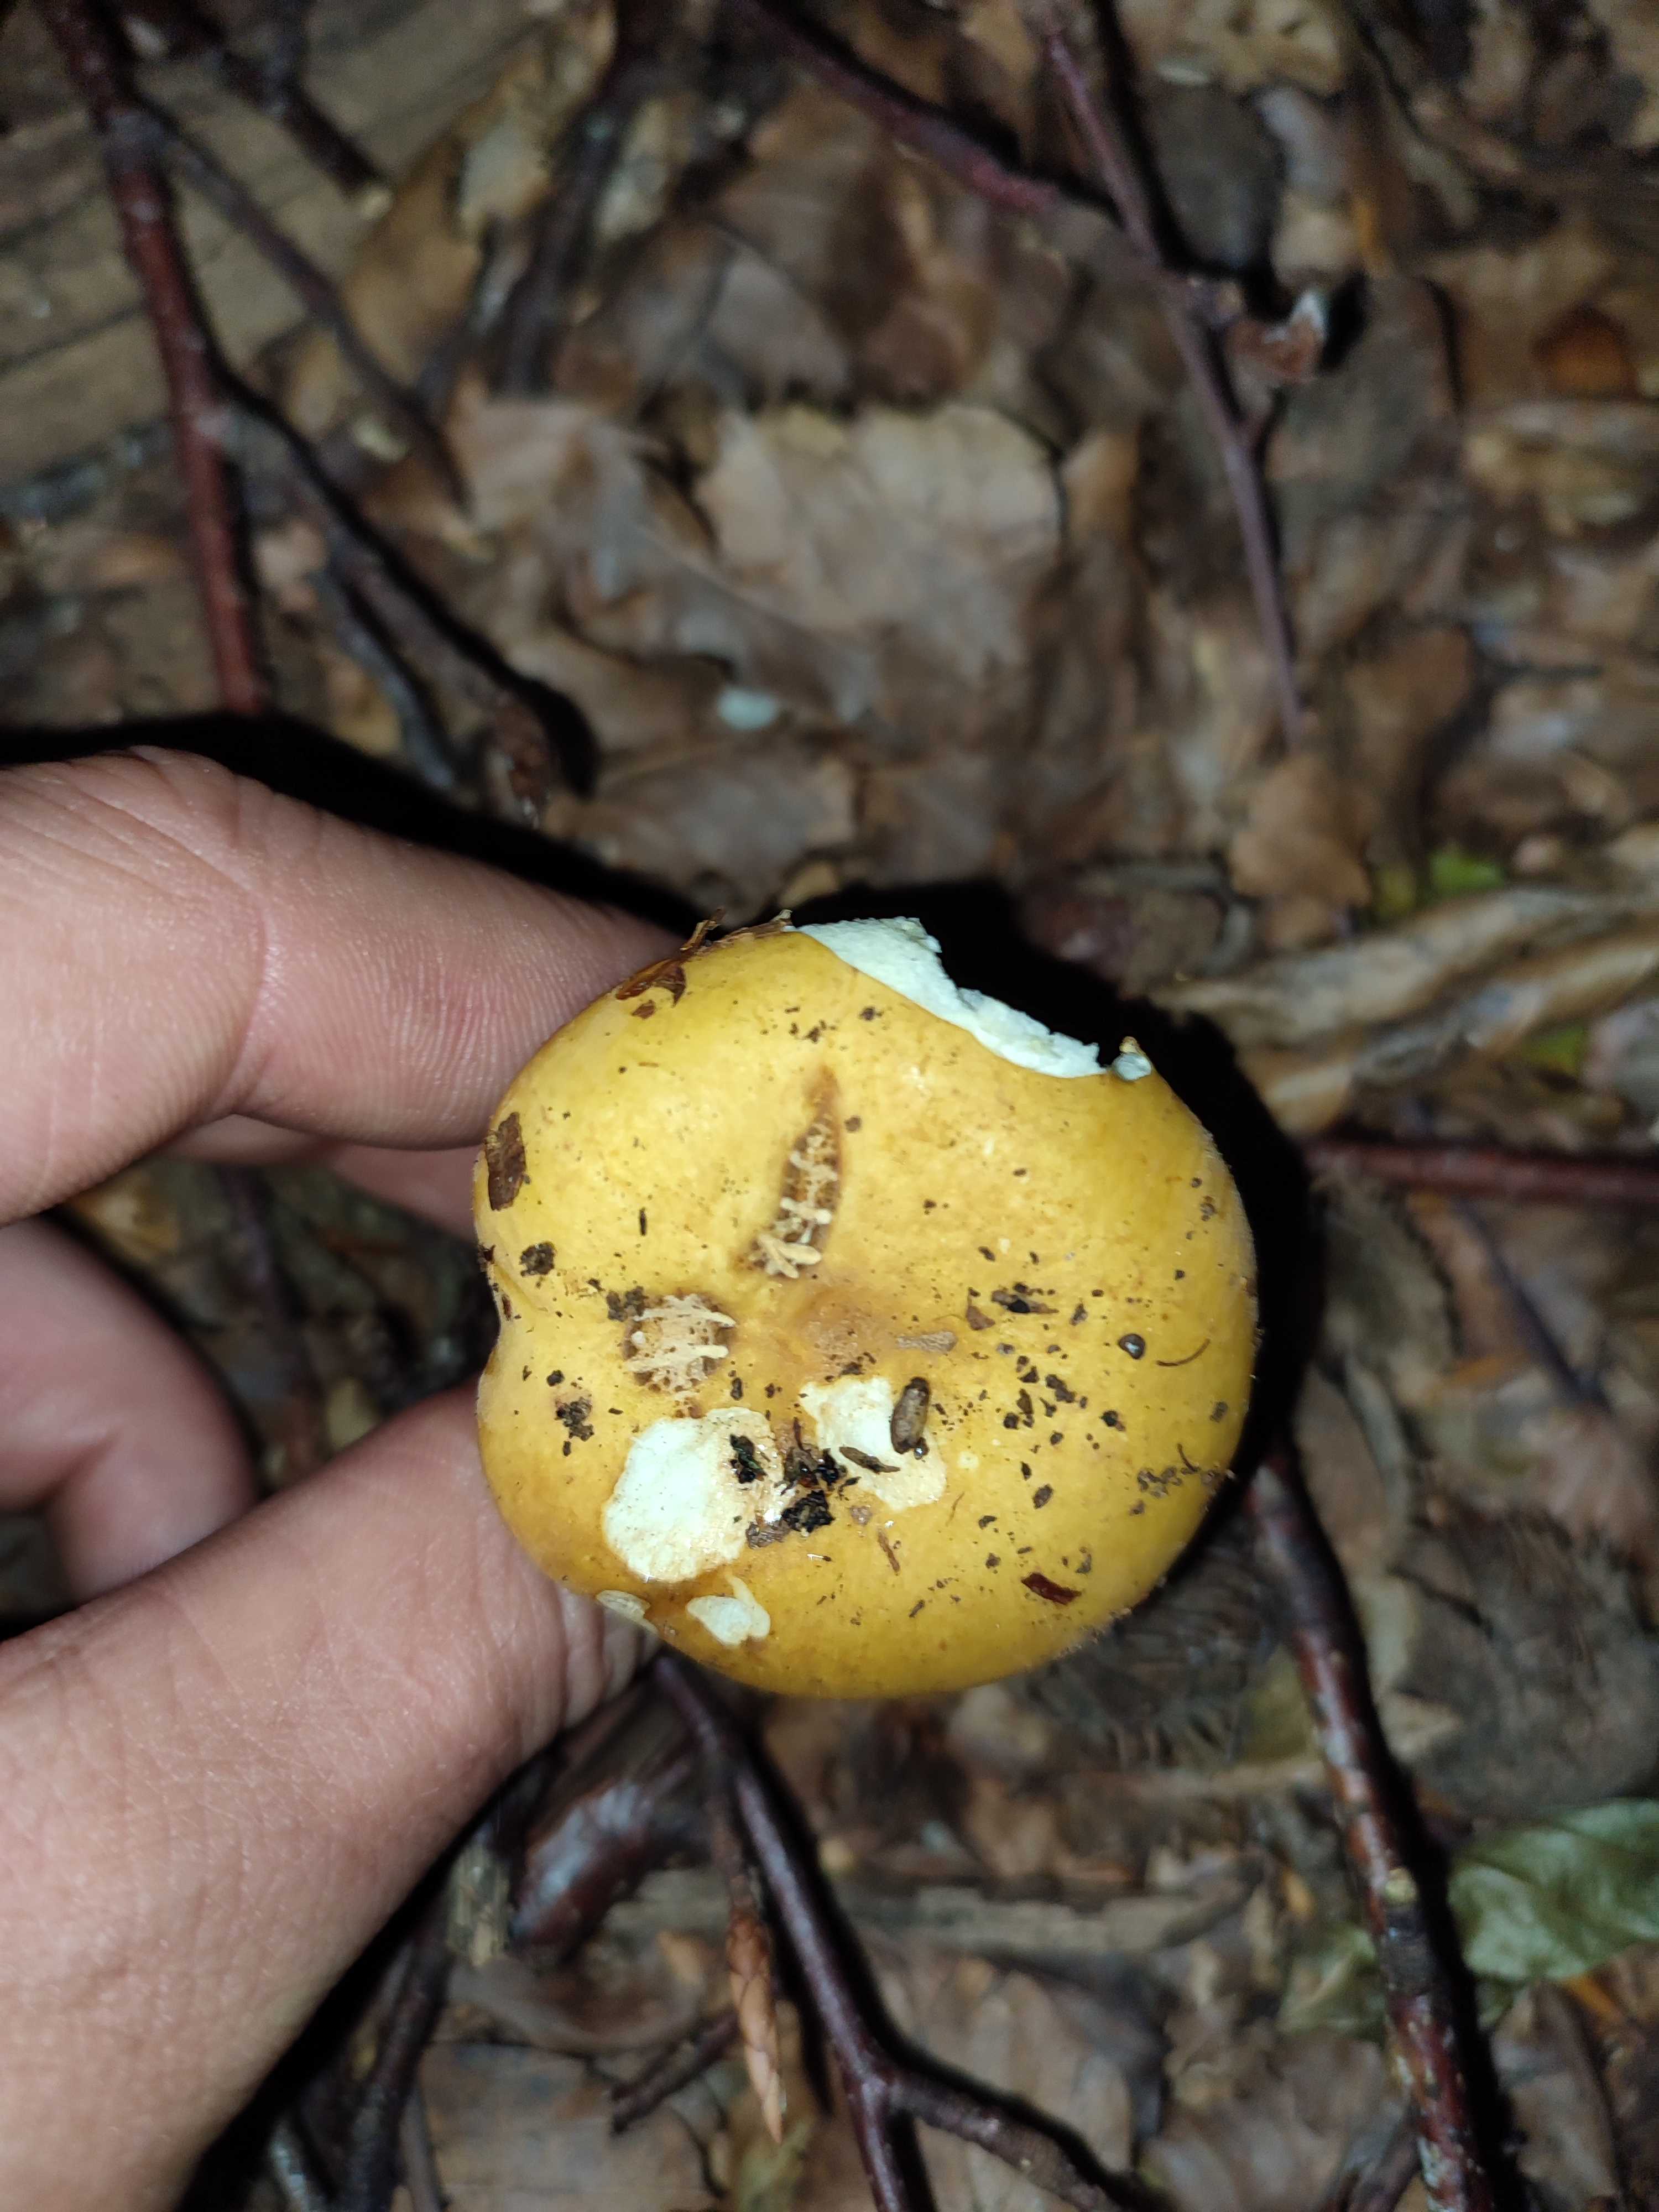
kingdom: Fungi
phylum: Basidiomycota
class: Agaricomycetes
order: Russulales
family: Russulaceae
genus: Russula
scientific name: Russula ochroleuca
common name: okkergul skørhat
